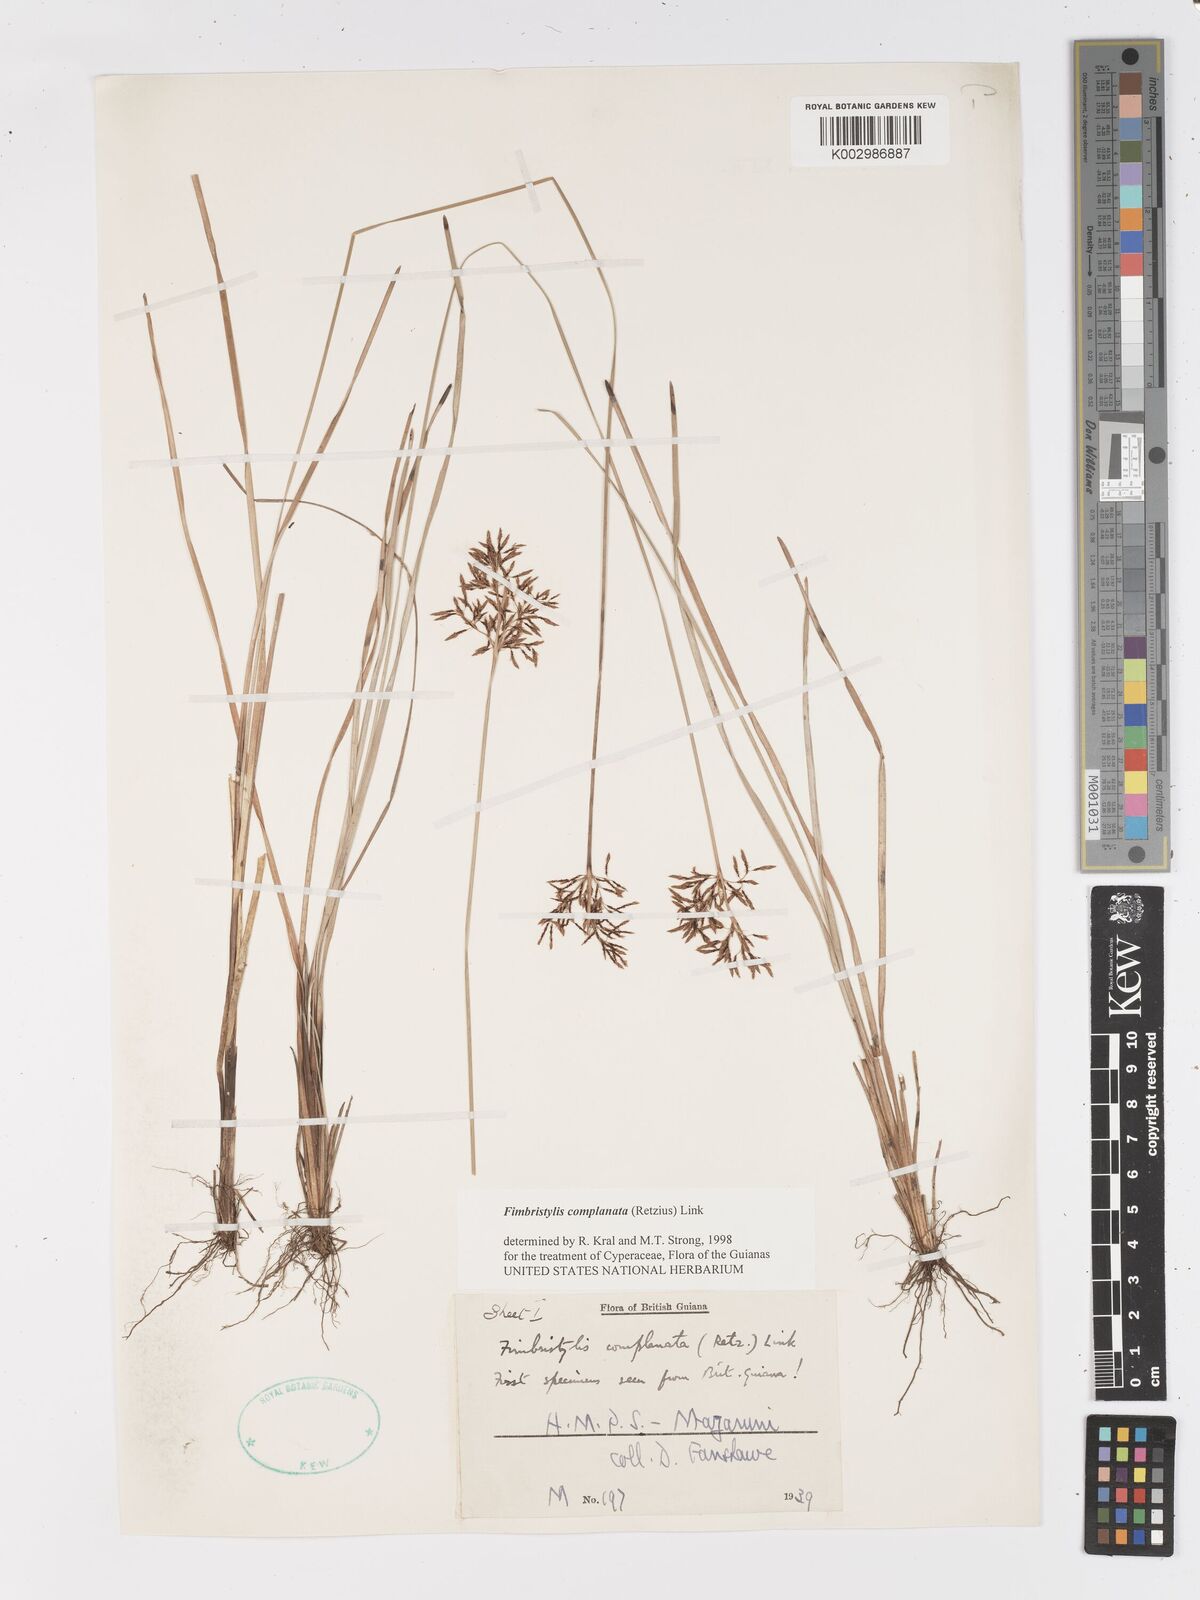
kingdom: Plantae
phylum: Tracheophyta
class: Liliopsida
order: Poales
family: Cyperaceae
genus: Fimbristylis
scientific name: Fimbristylis complanata
